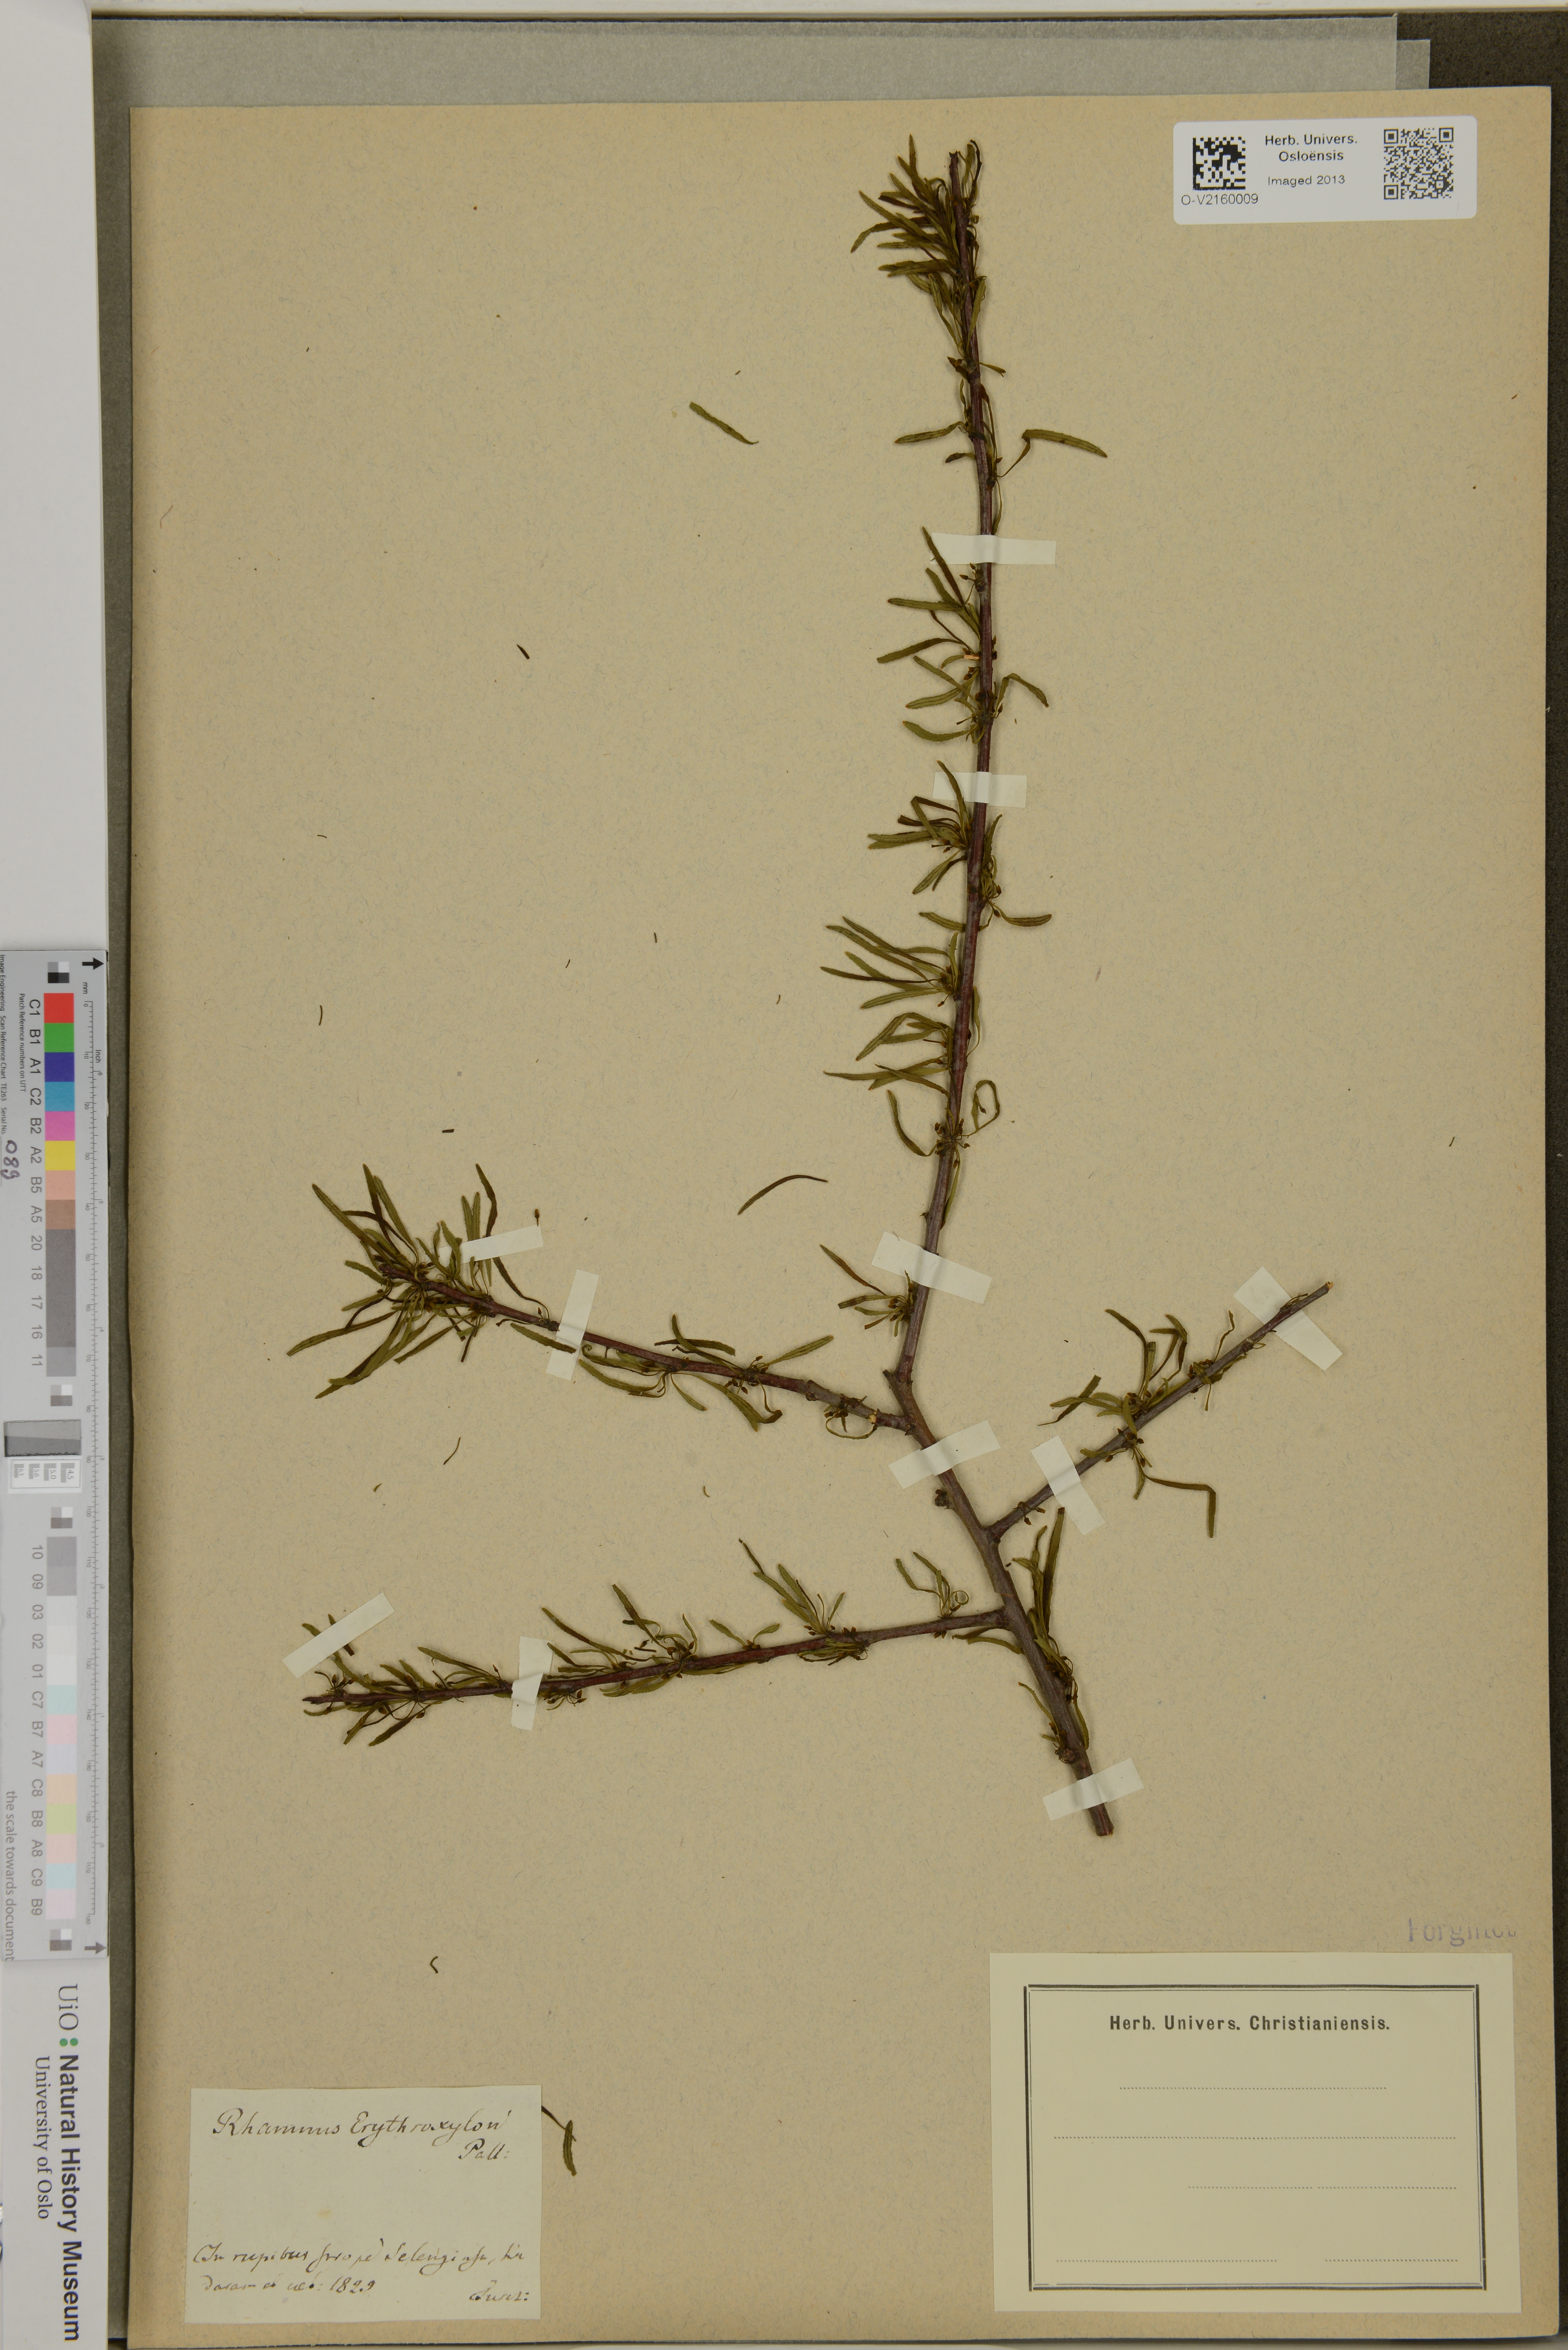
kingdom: Plantae
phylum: Tracheophyta
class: Magnoliopsida
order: Rosales
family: Rhamnaceae
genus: Rhamnus
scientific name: Rhamnus erythroxyloides
